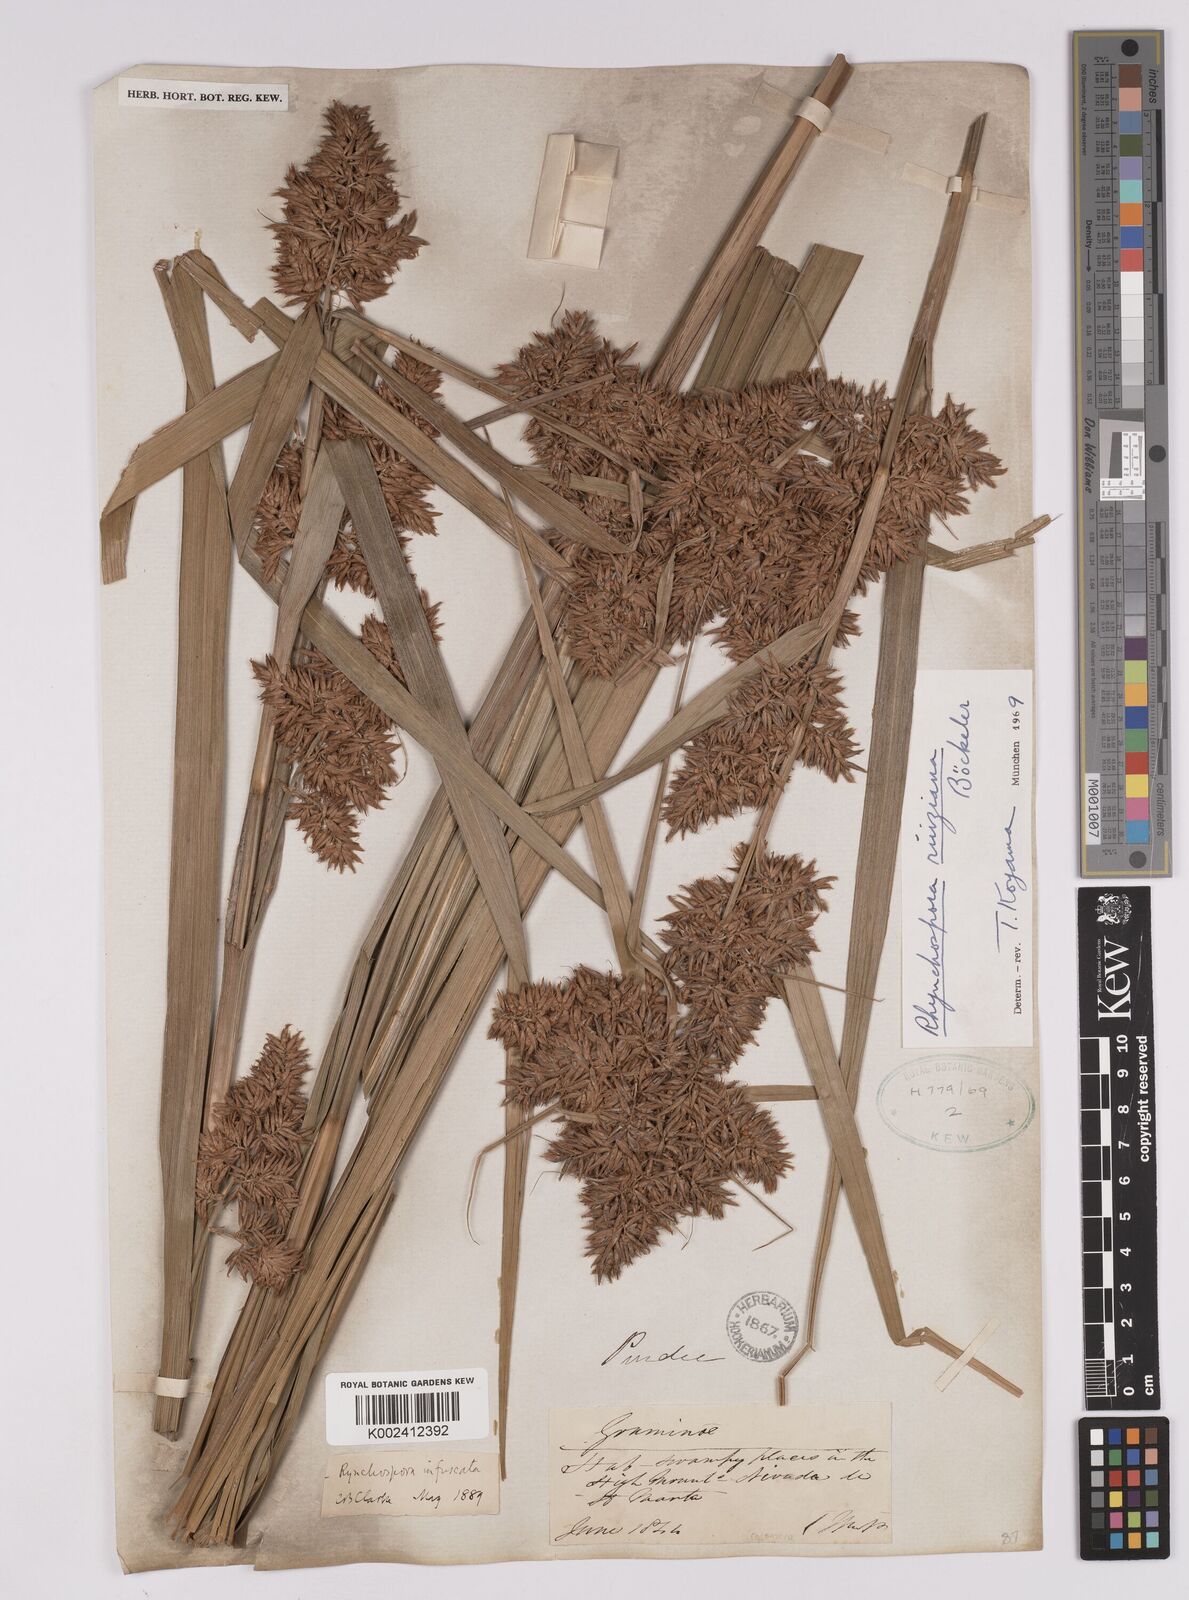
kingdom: Plantae
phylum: Tracheophyta
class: Liliopsida
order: Poales
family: Cyperaceae
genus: Rhynchospora
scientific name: Rhynchospora ruiziana
